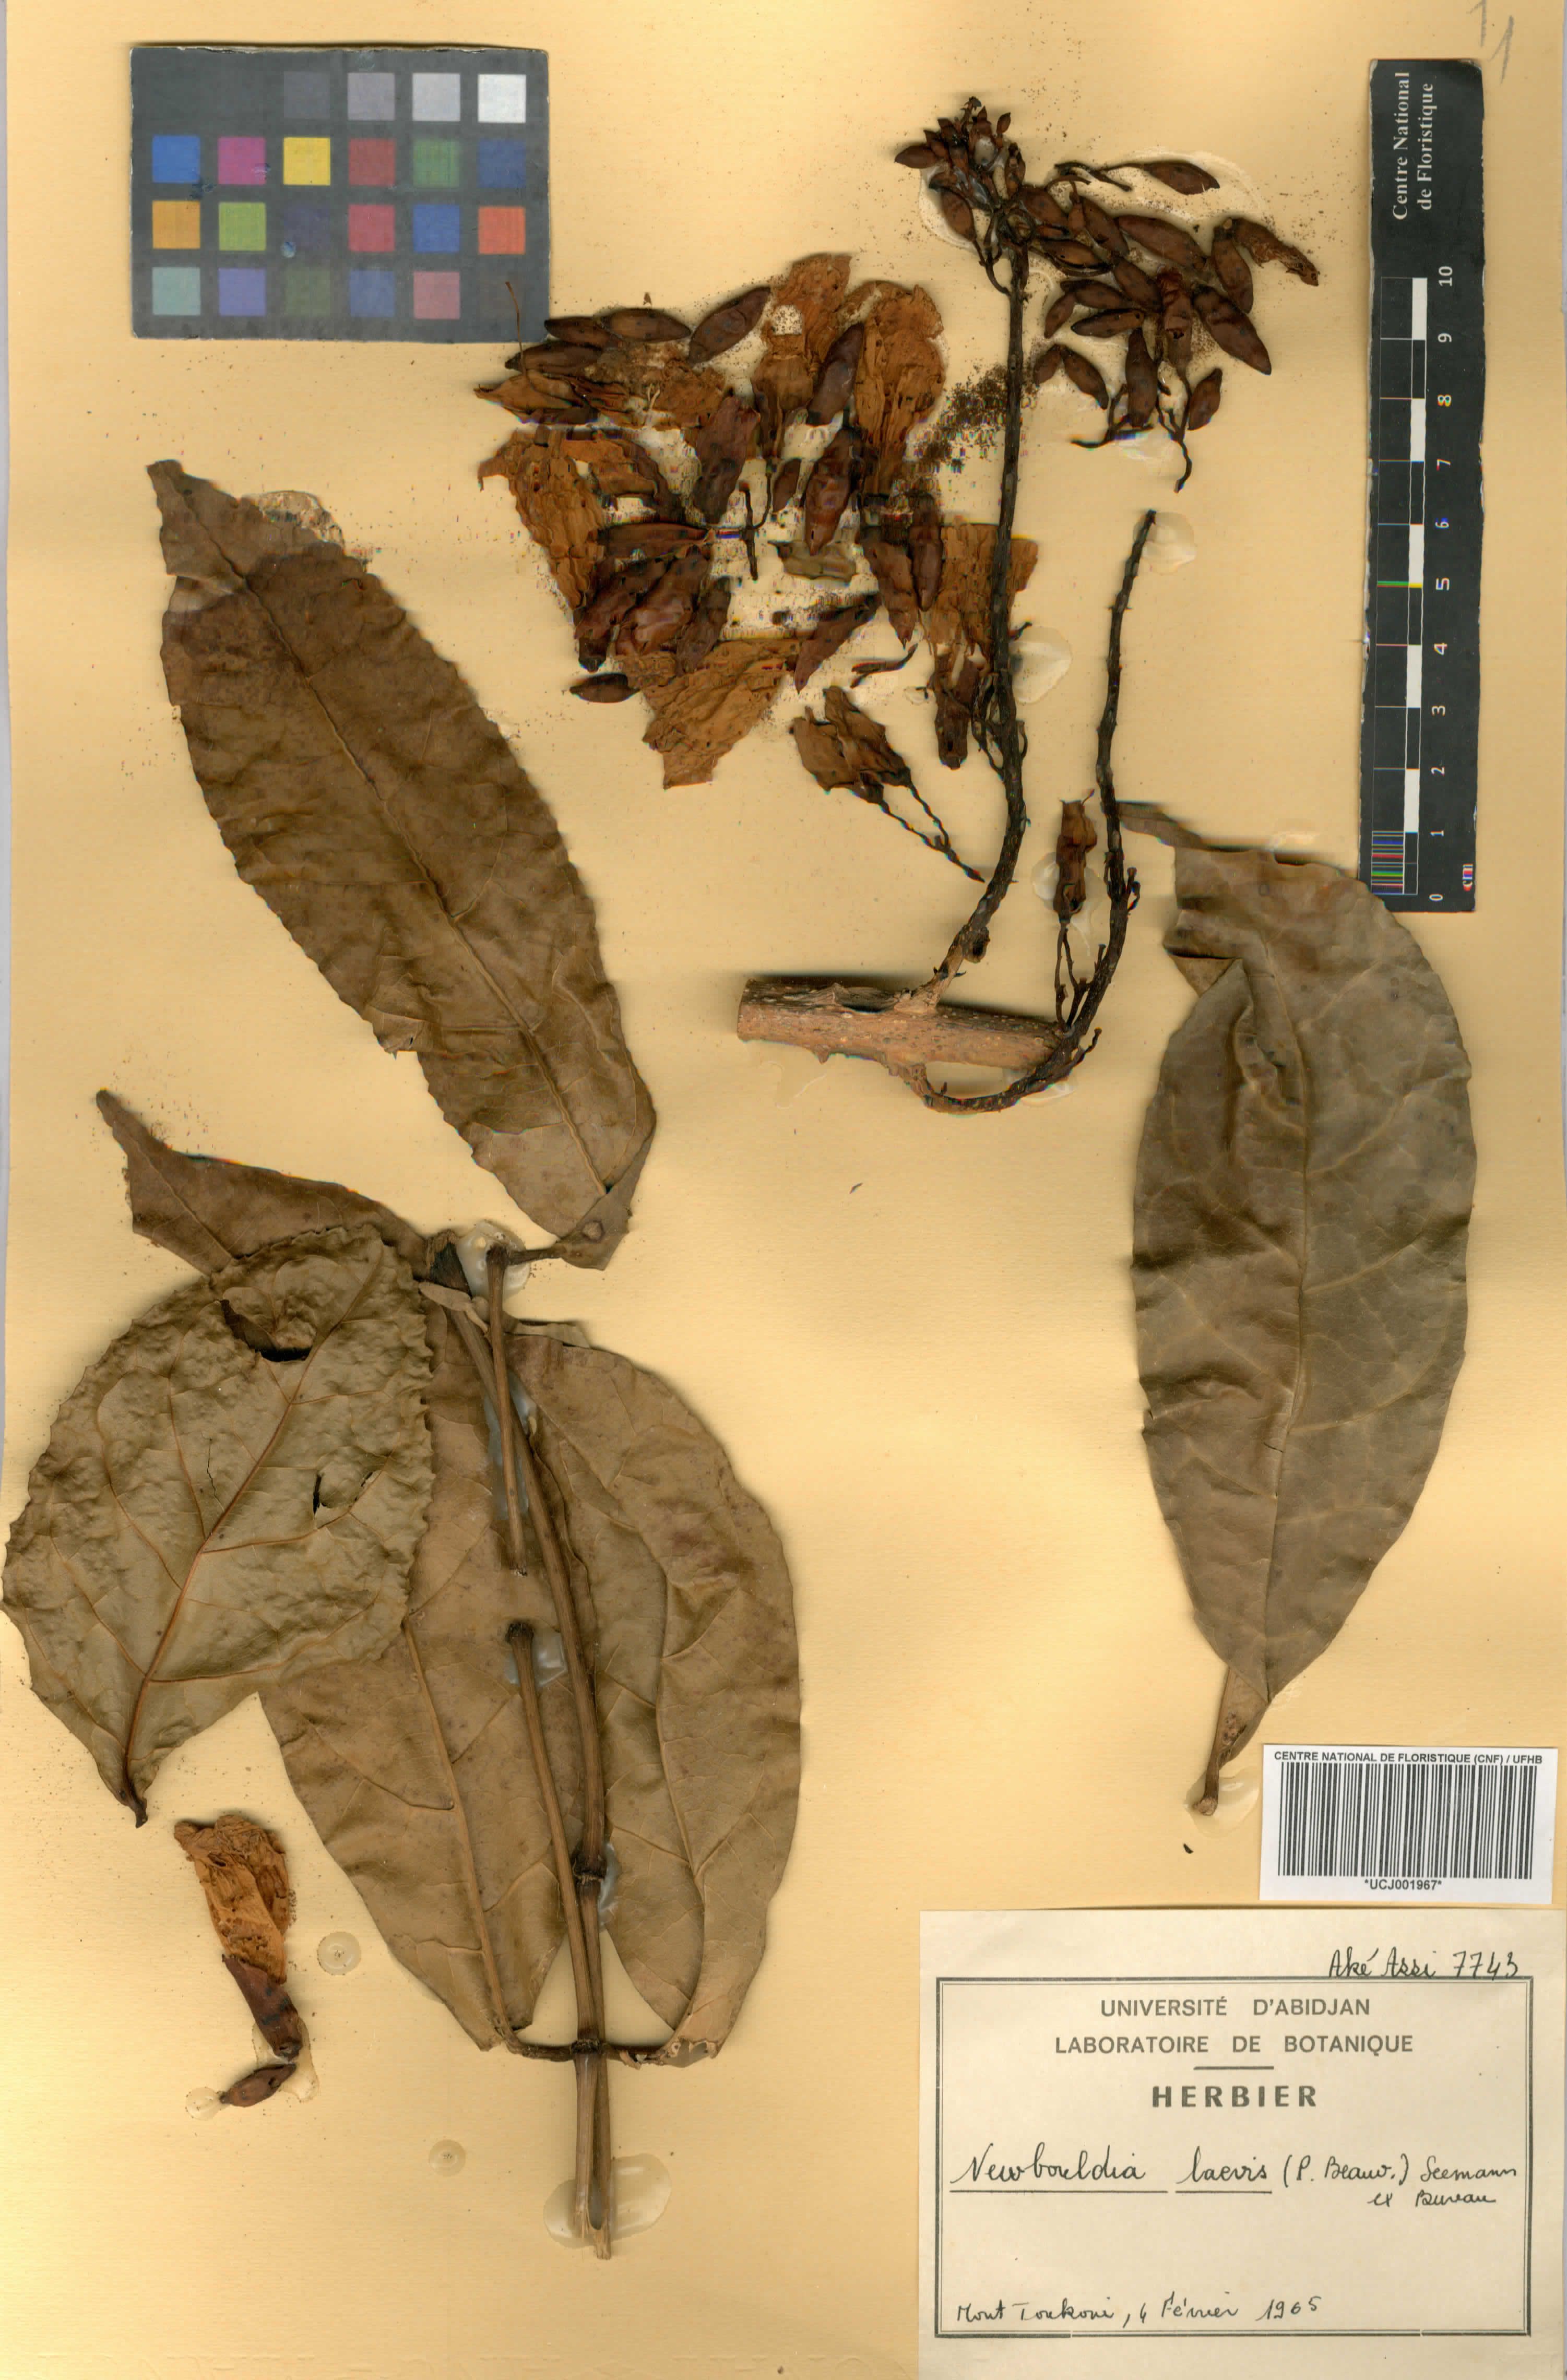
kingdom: Plantae
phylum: Tracheophyta
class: Magnoliopsida
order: Lamiales
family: Bignoniaceae
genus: Newbouldia
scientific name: Newbouldia laevis
